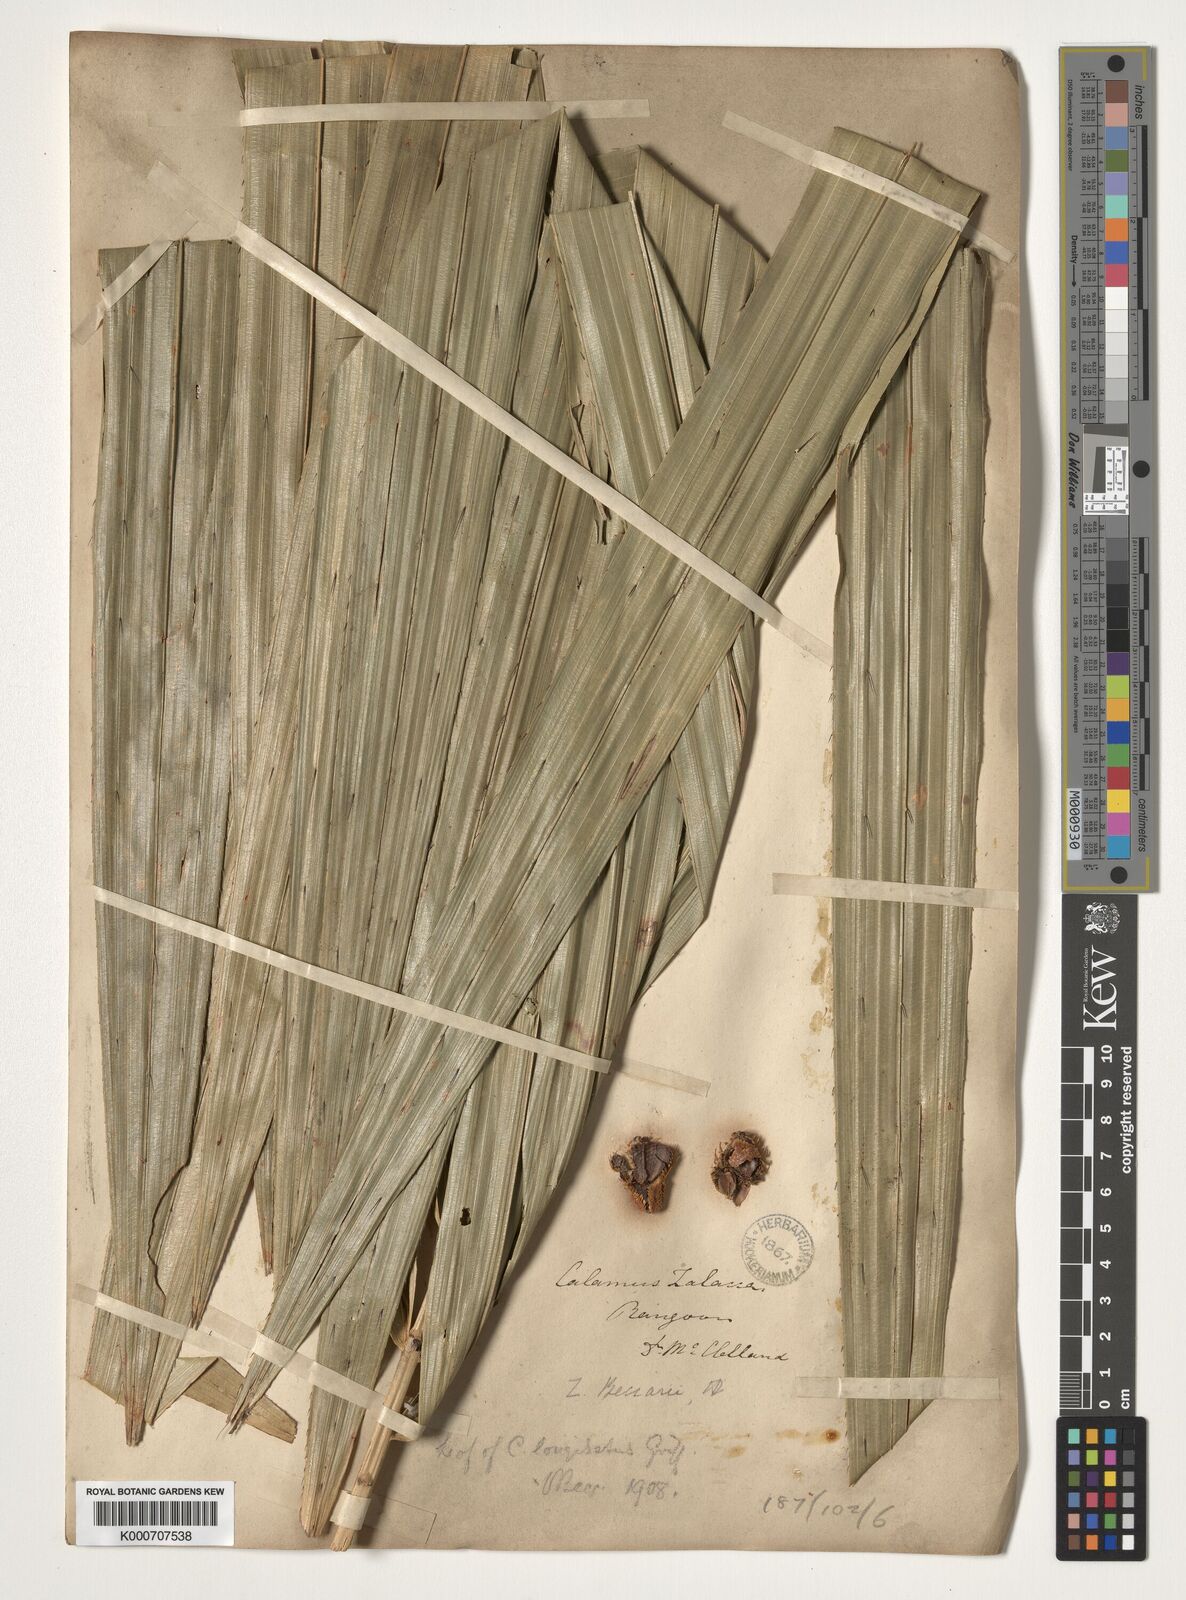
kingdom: Plantae
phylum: Tracheophyta
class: Liliopsida
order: Arecales
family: Arecaceae
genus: Calamus
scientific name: Calamus longisetus
